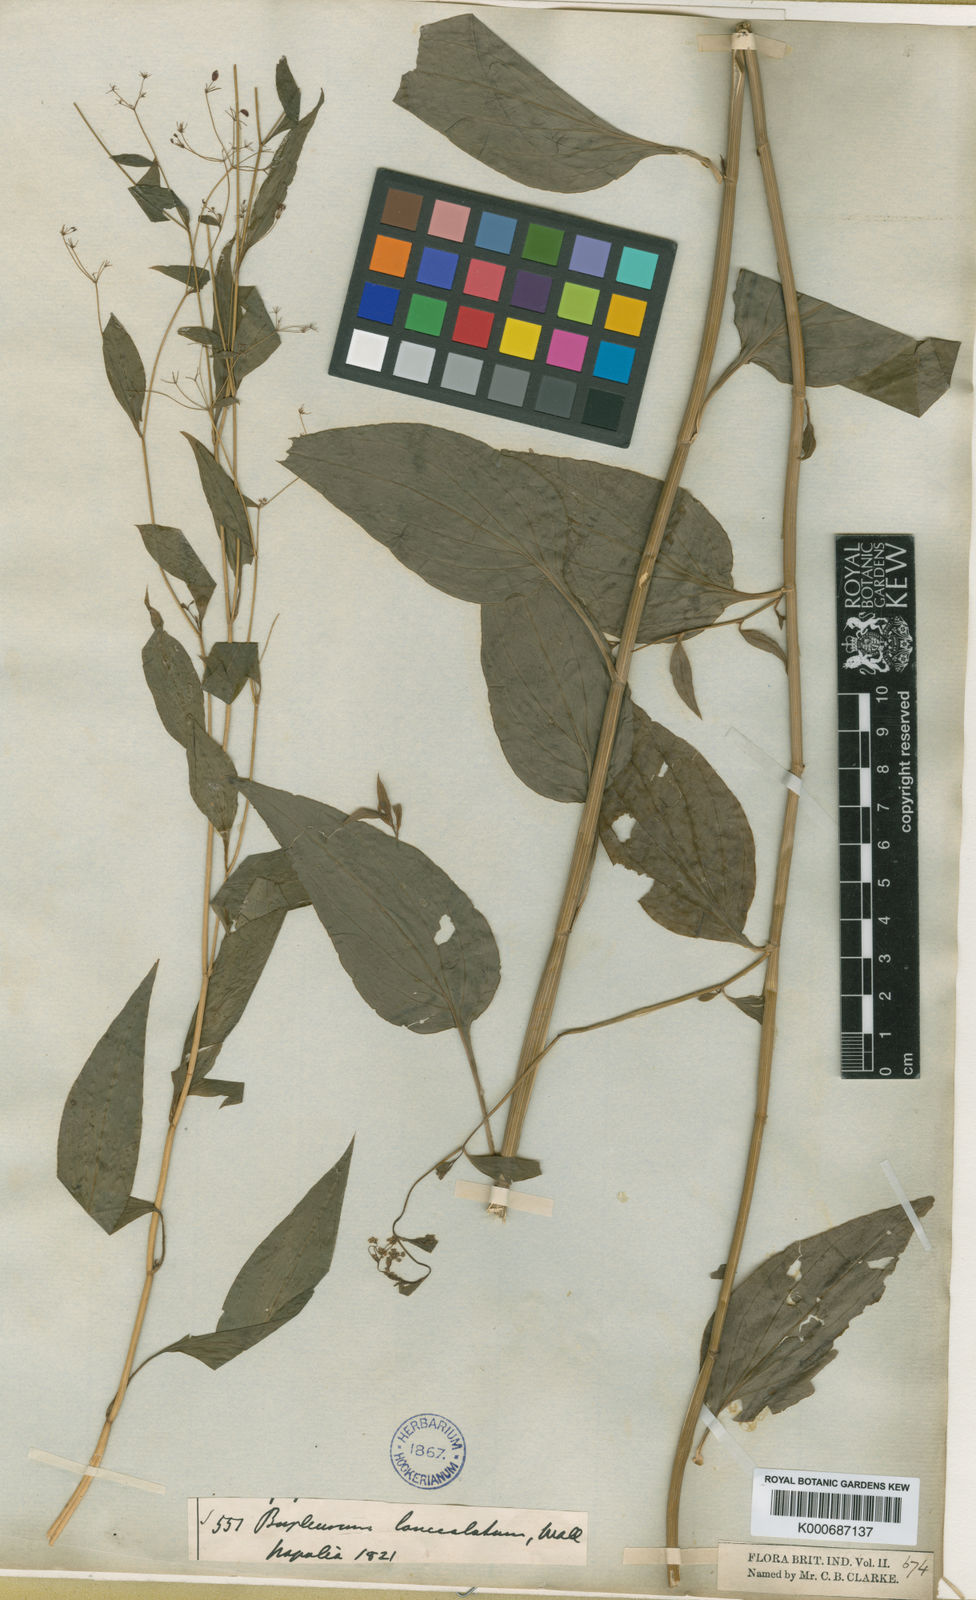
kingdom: Plantae
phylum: Tracheophyta
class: Magnoliopsida
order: Apiales
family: Apiaceae
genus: Bupleurum
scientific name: Bupleurum lanceolatum
